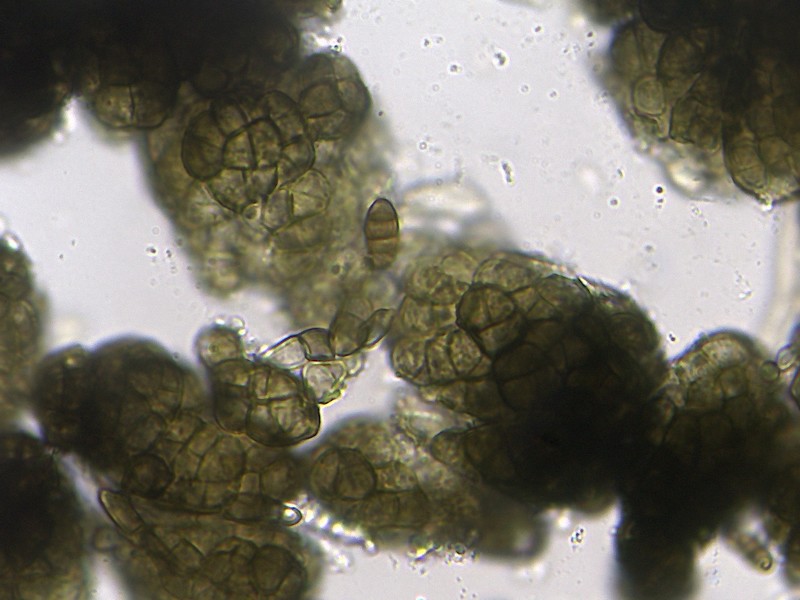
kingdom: Fungi
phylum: Ascomycota
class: Dothideomycetes
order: Dothideales
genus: Monodictys
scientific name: Monodictys melanopa
